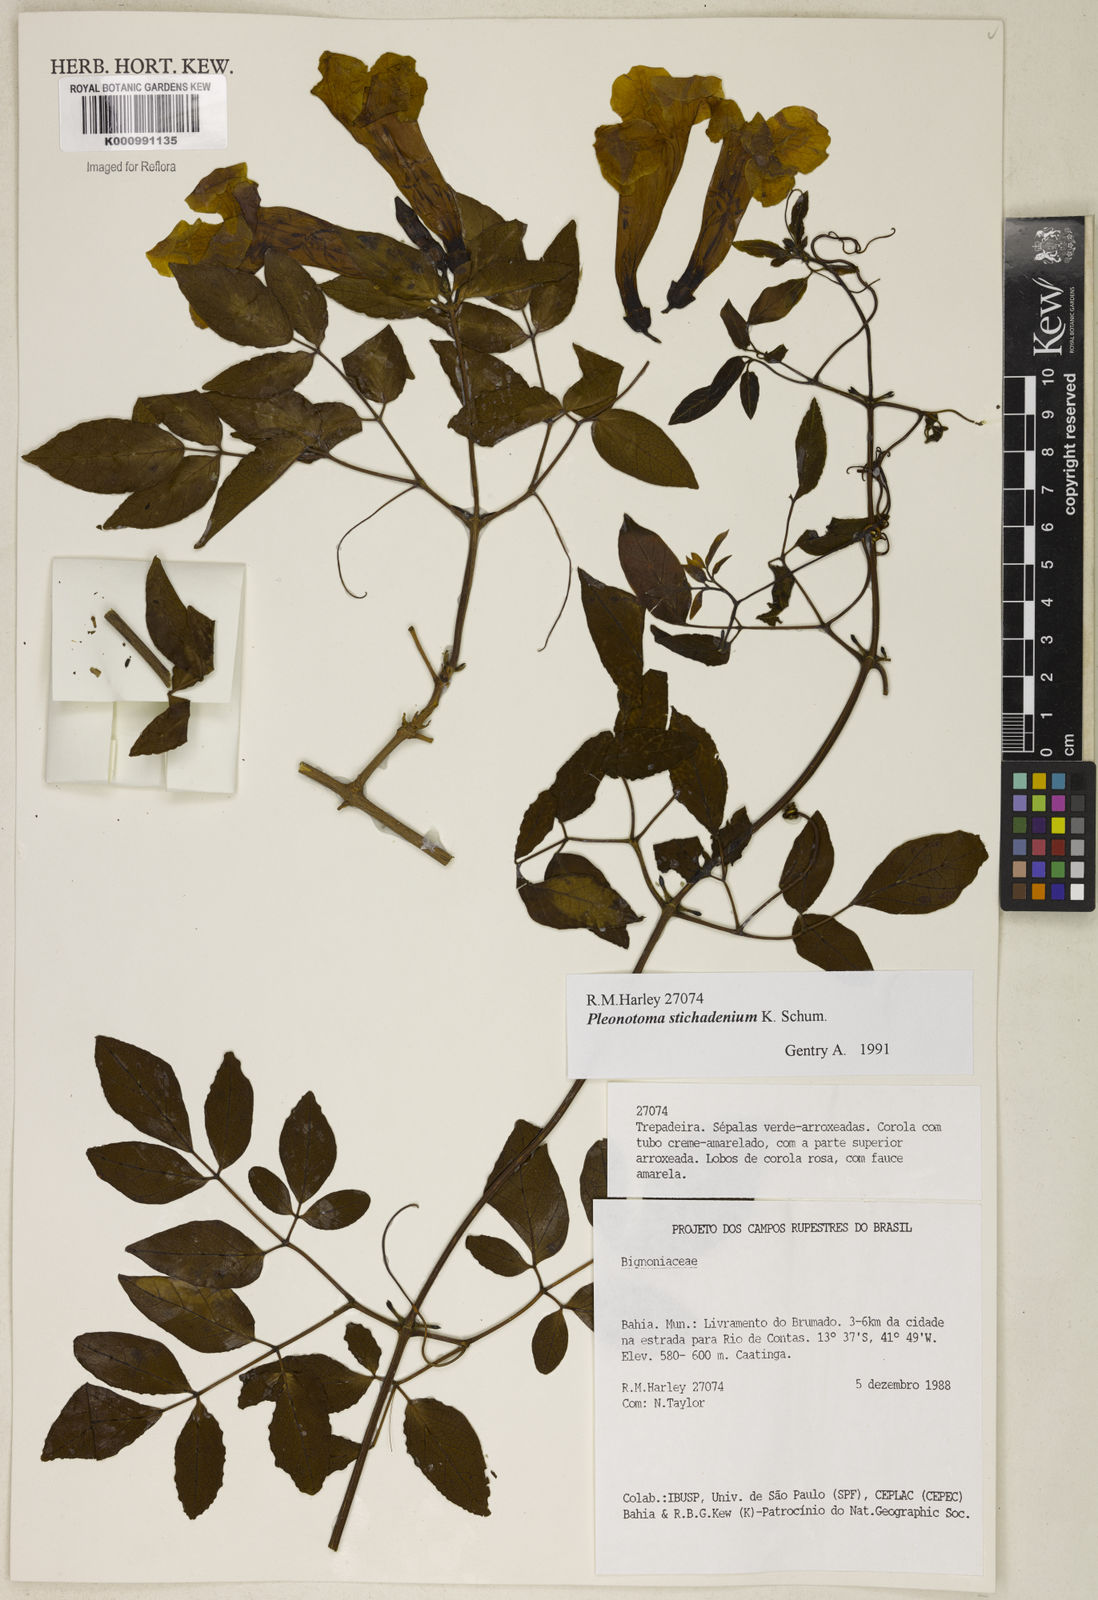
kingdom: Plantae
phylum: Tracheophyta
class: Magnoliopsida
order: Lamiales
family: Bignoniaceae
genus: Pleonotoma
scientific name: Pleonotoma stichadenia
